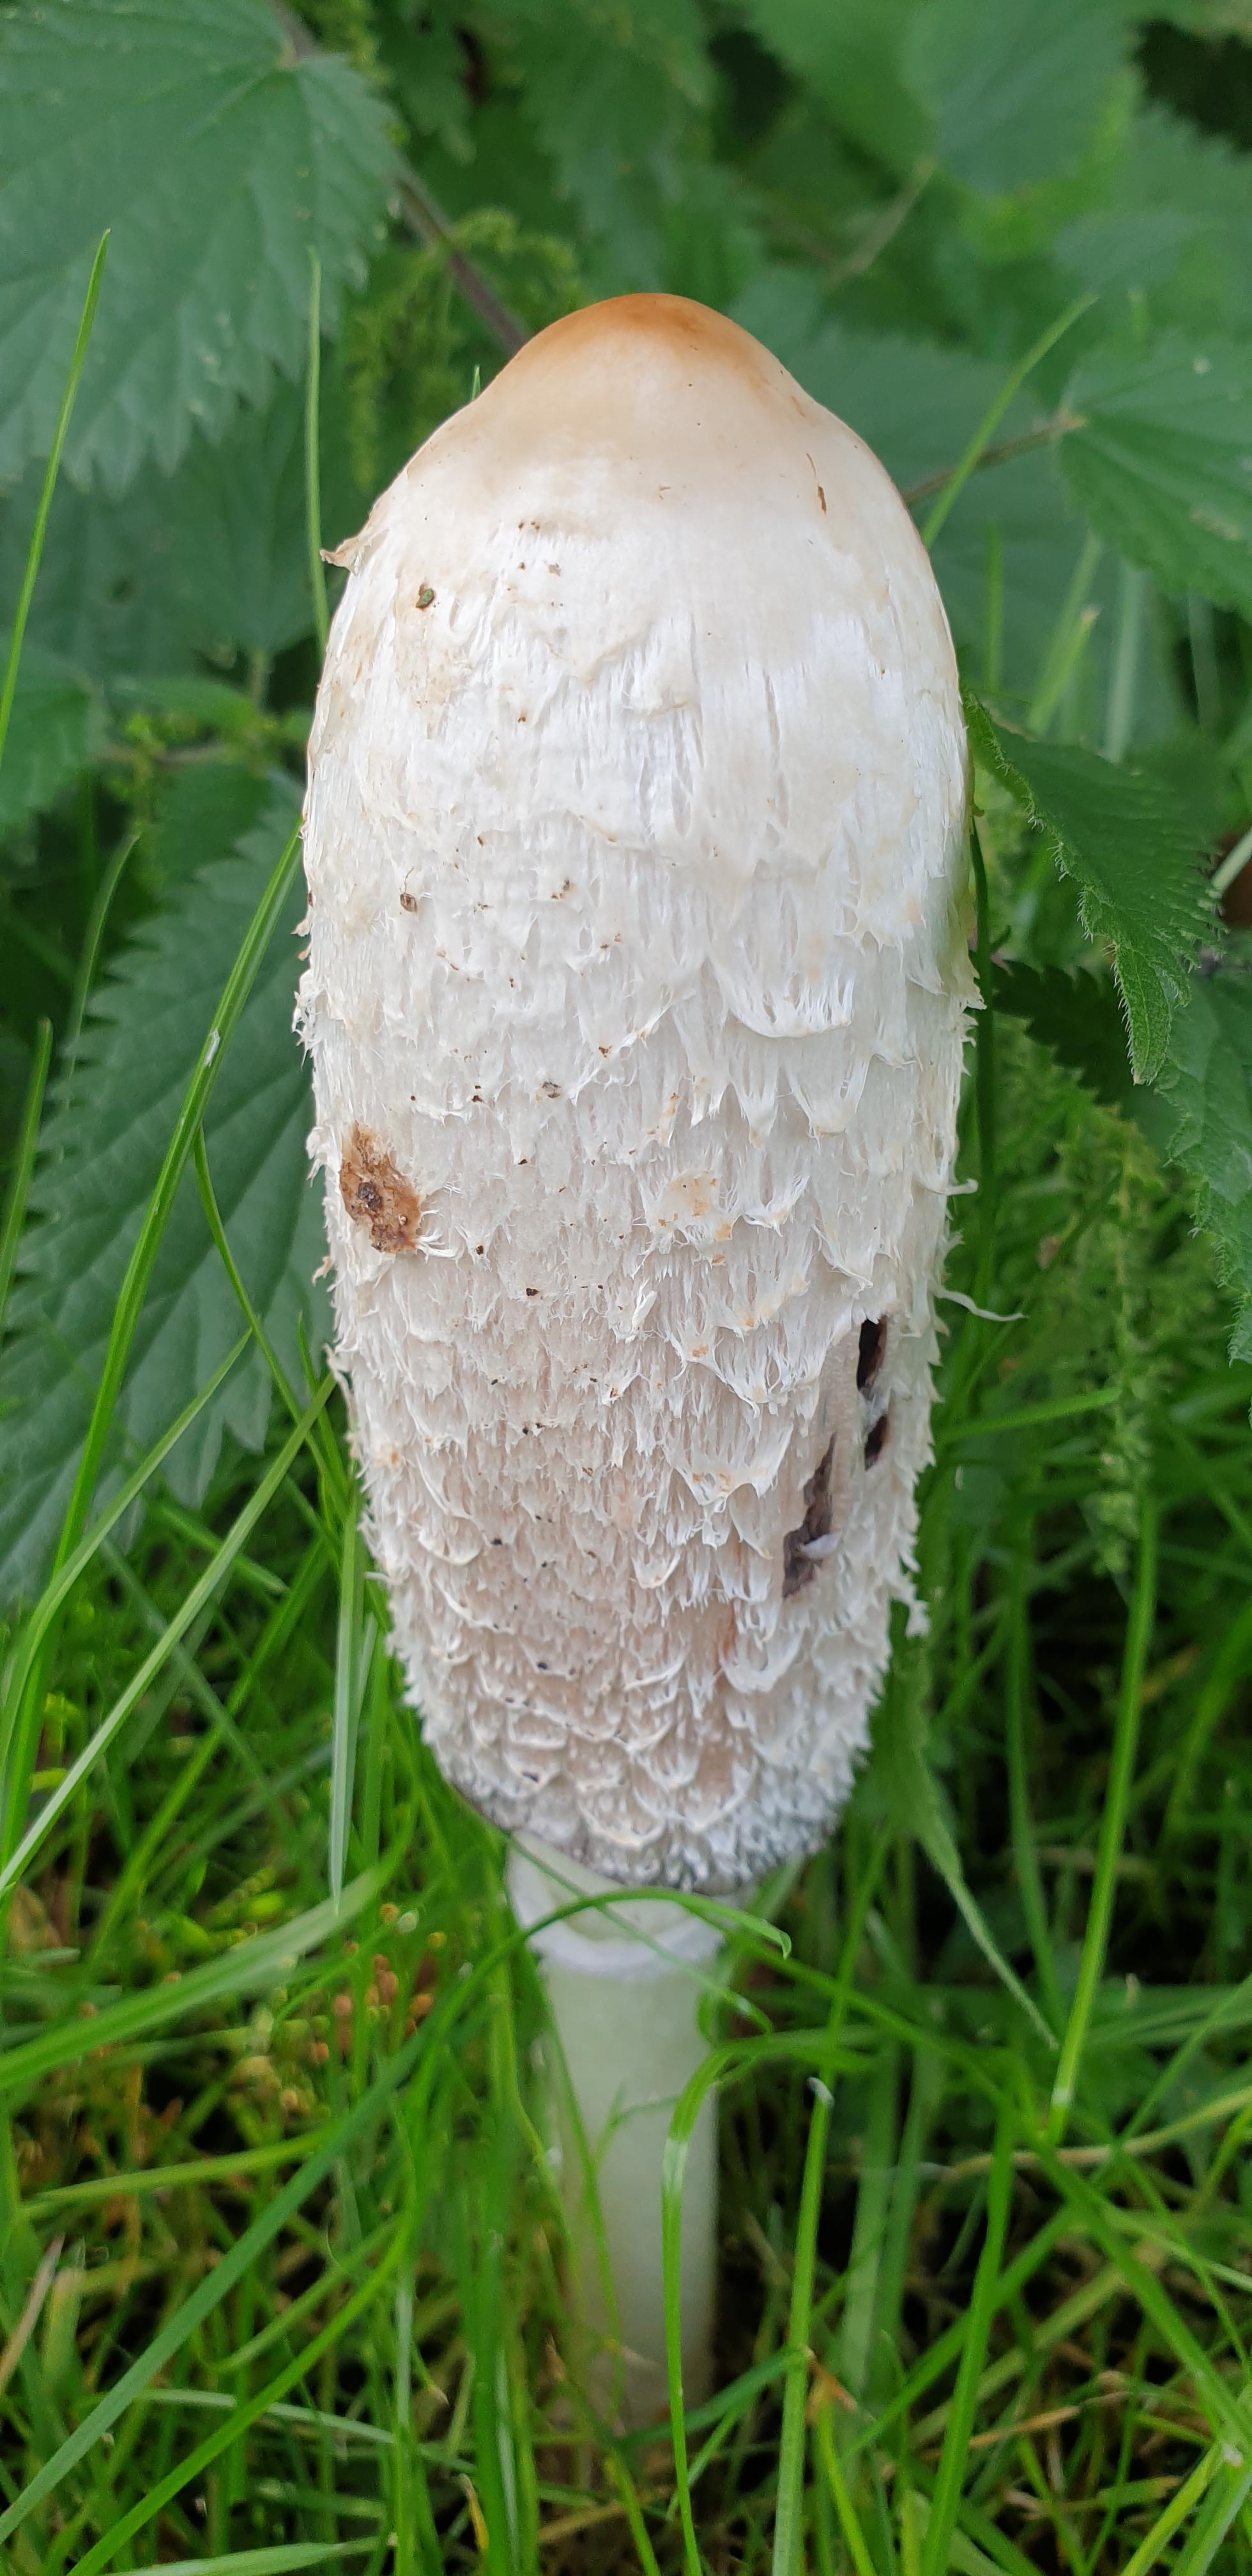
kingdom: Fungi
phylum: Basidiomycota
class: Agaricomycetes
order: Agaricales
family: Agaricaceae
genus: Coprinus
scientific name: Coprinus comatus
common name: stor parykhat
